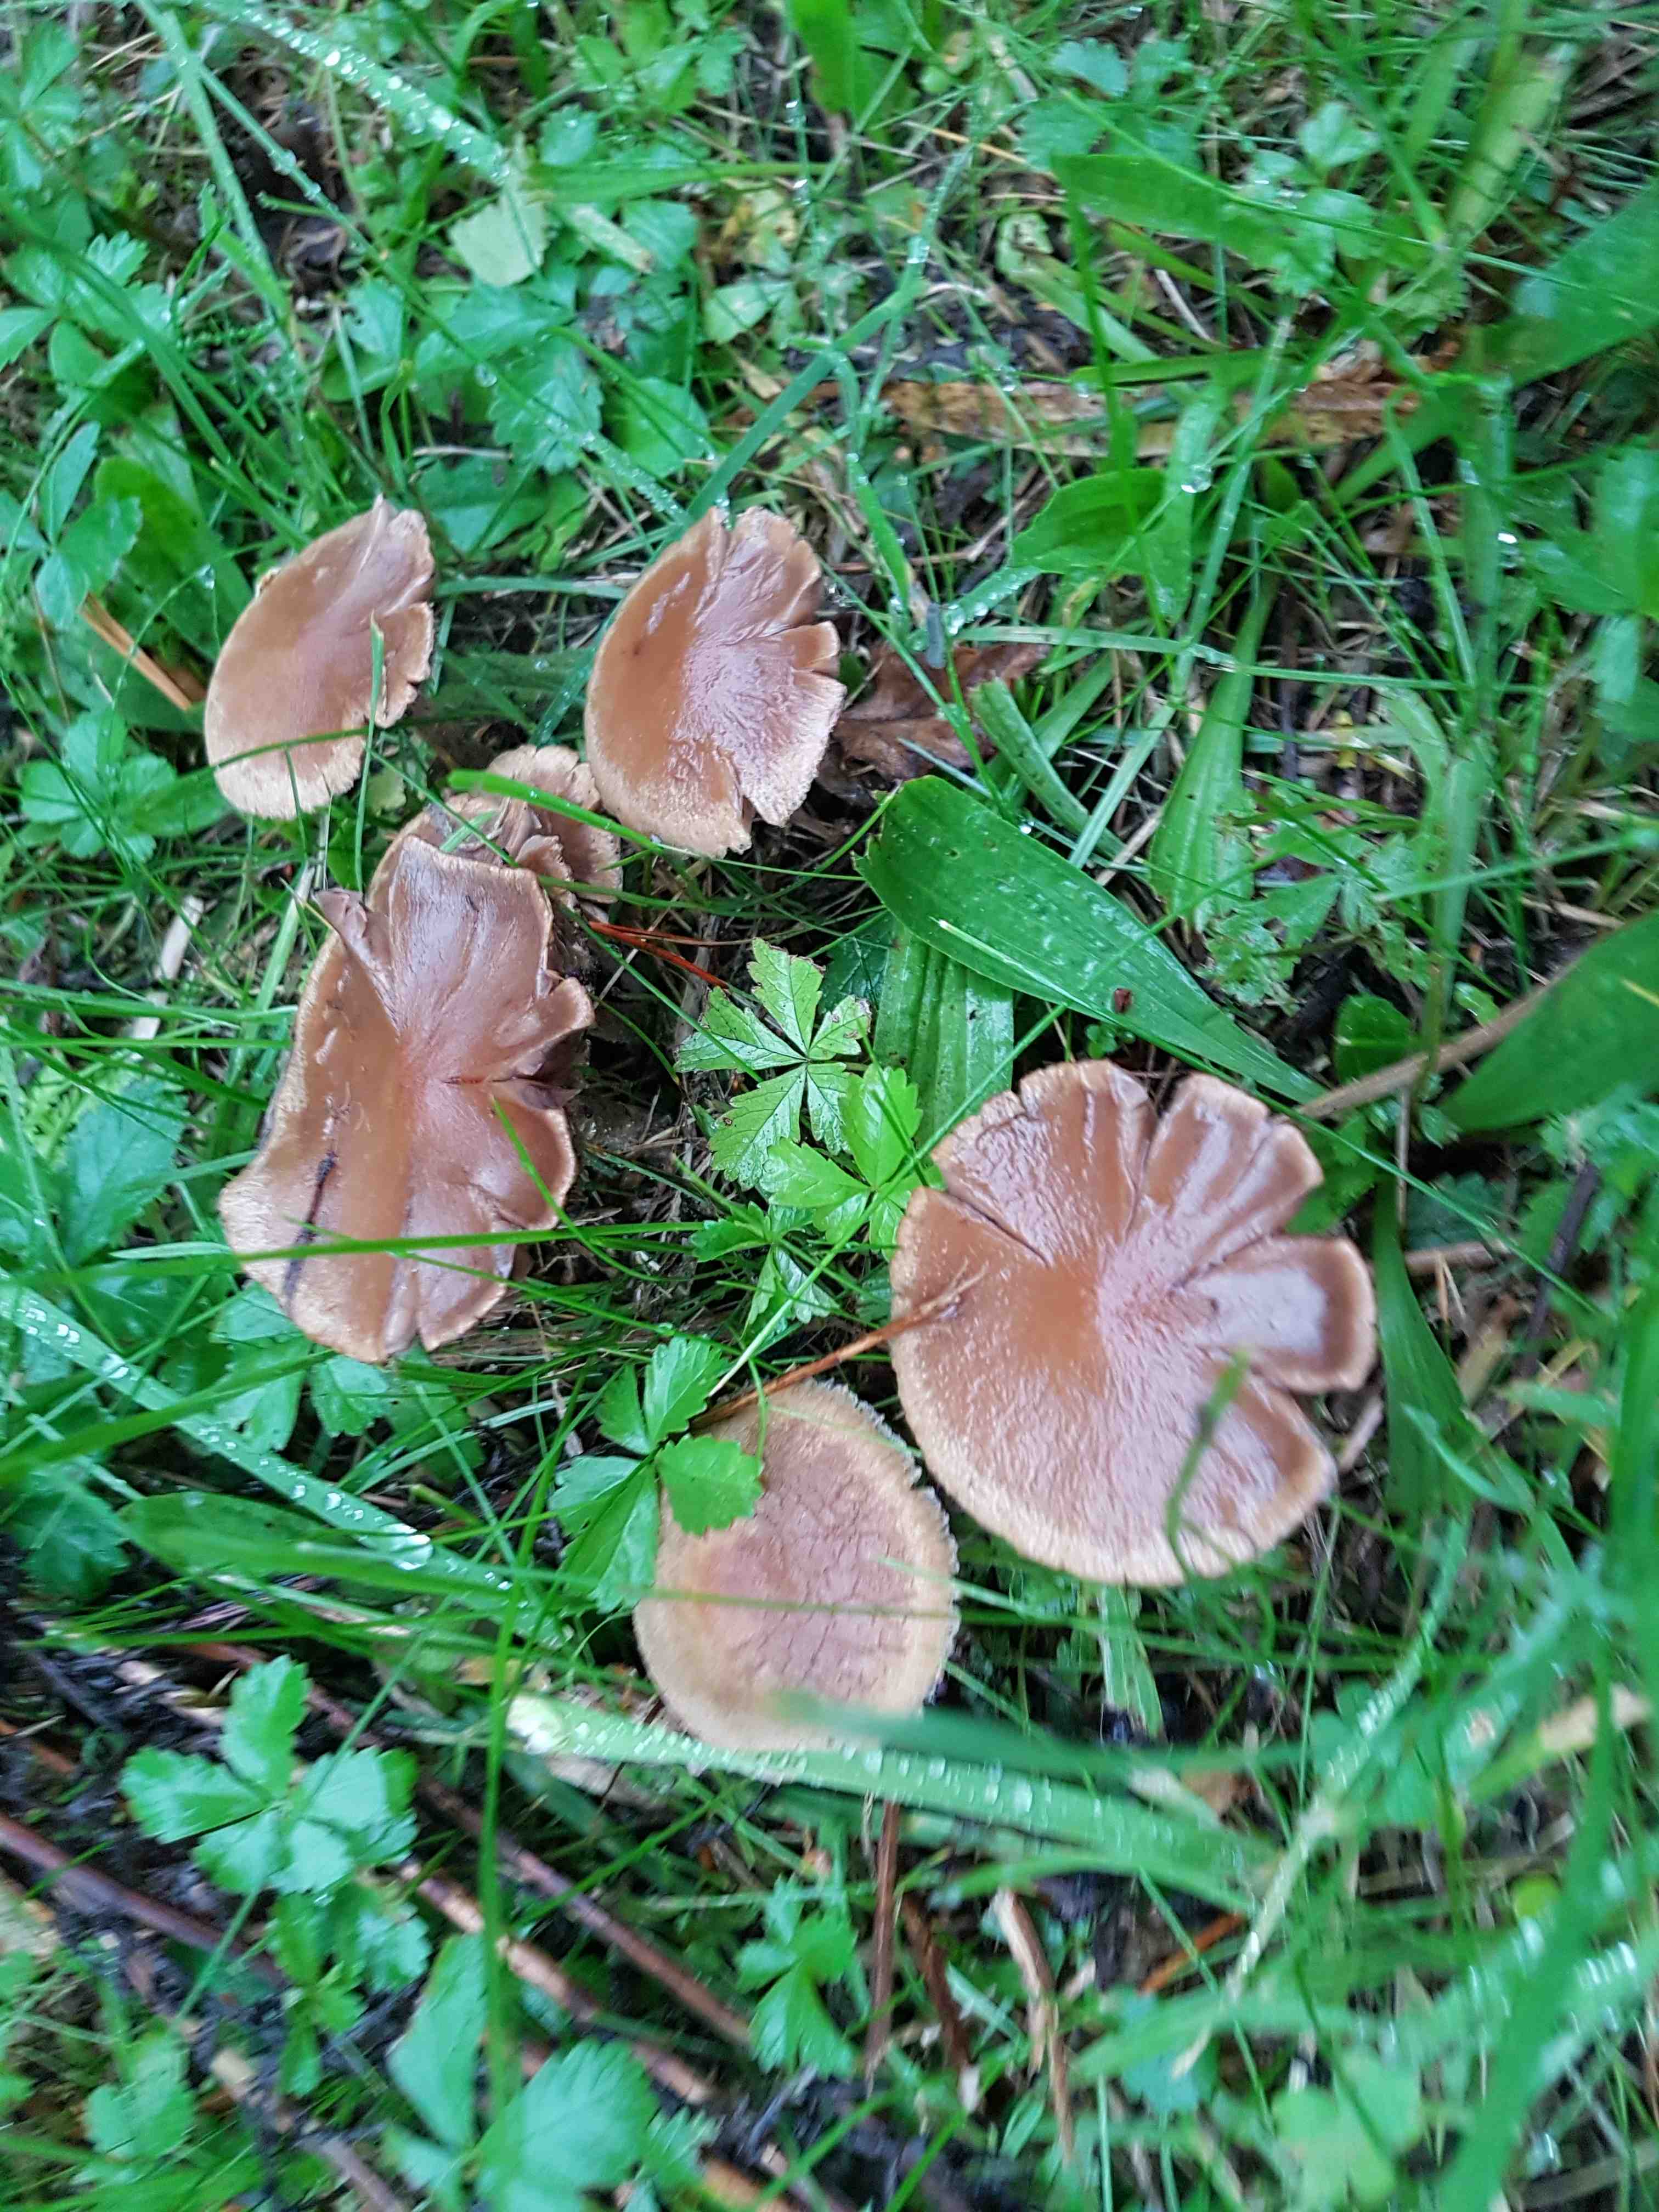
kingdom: Fungi
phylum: Basidiomycota
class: Agaricomycetes
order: Agaricales
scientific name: Agaricales
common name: champignonordenen
